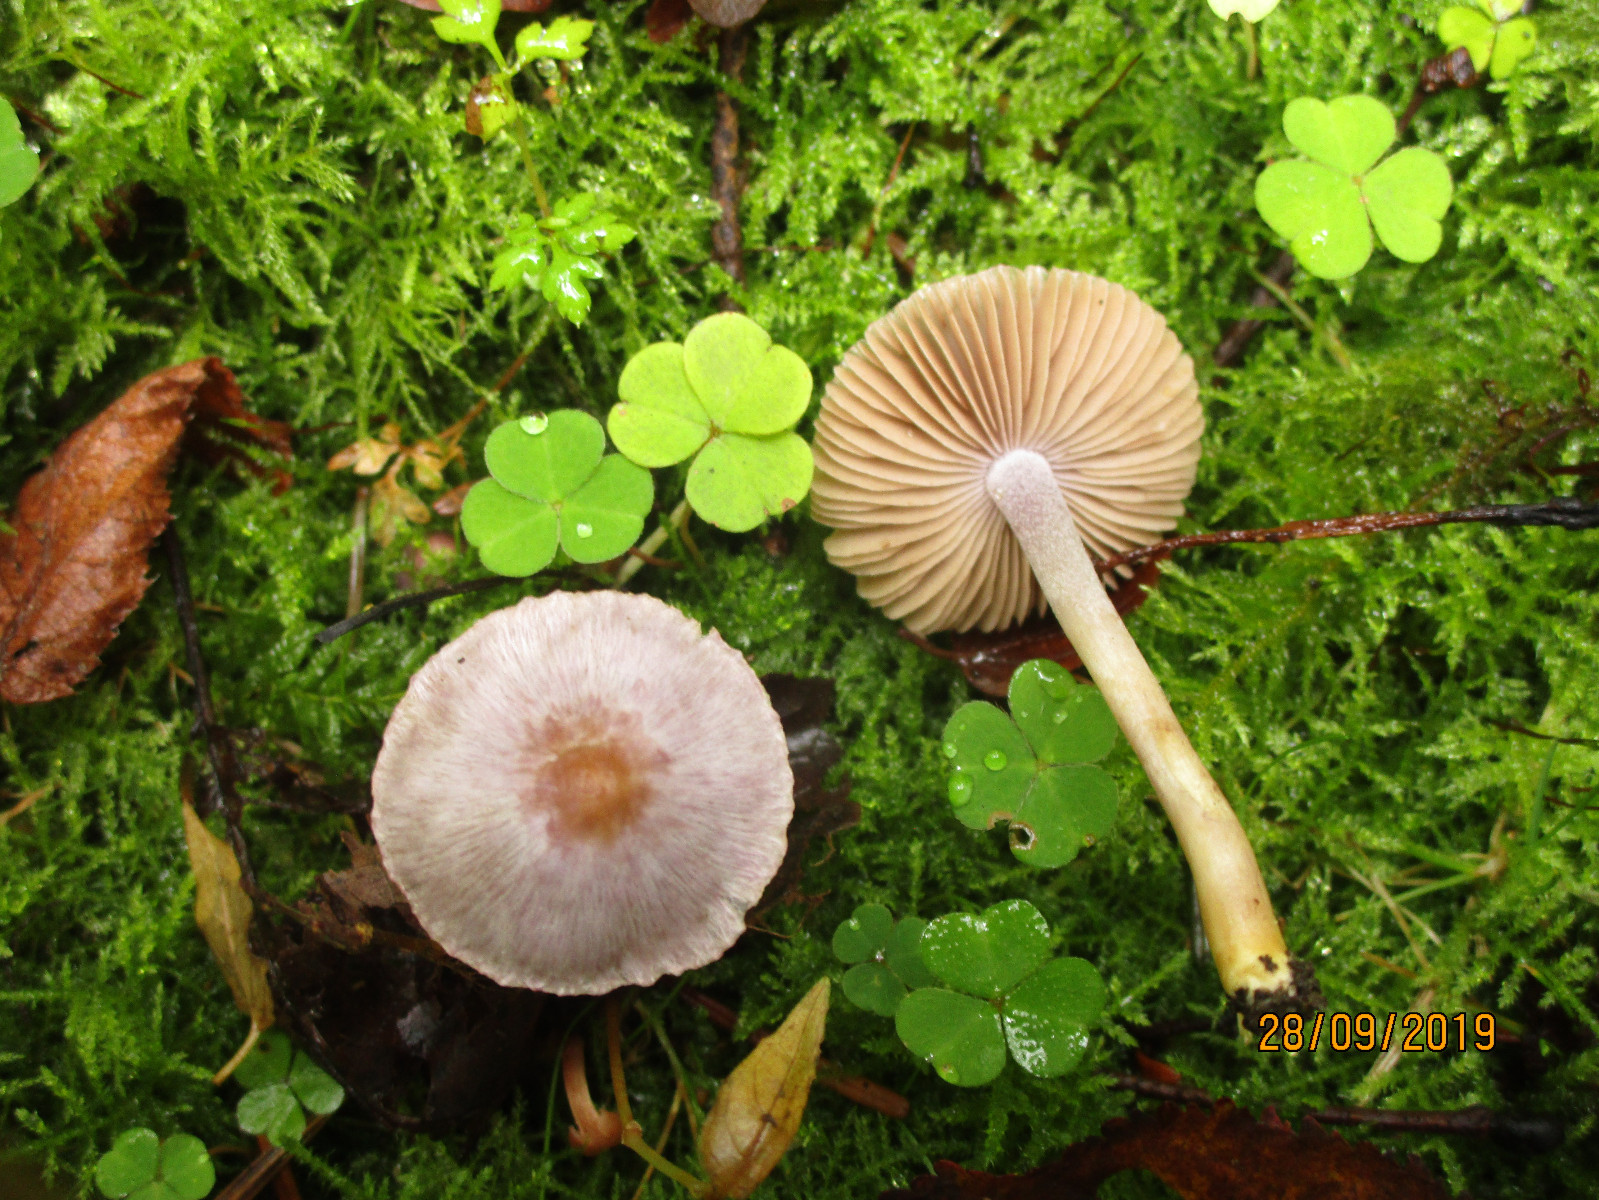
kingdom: Fungi
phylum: Basidiomycota
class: Agaricomycetes
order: Agaricales
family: Inocybaceae
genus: Inocybe
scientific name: Inocybe geophylla
